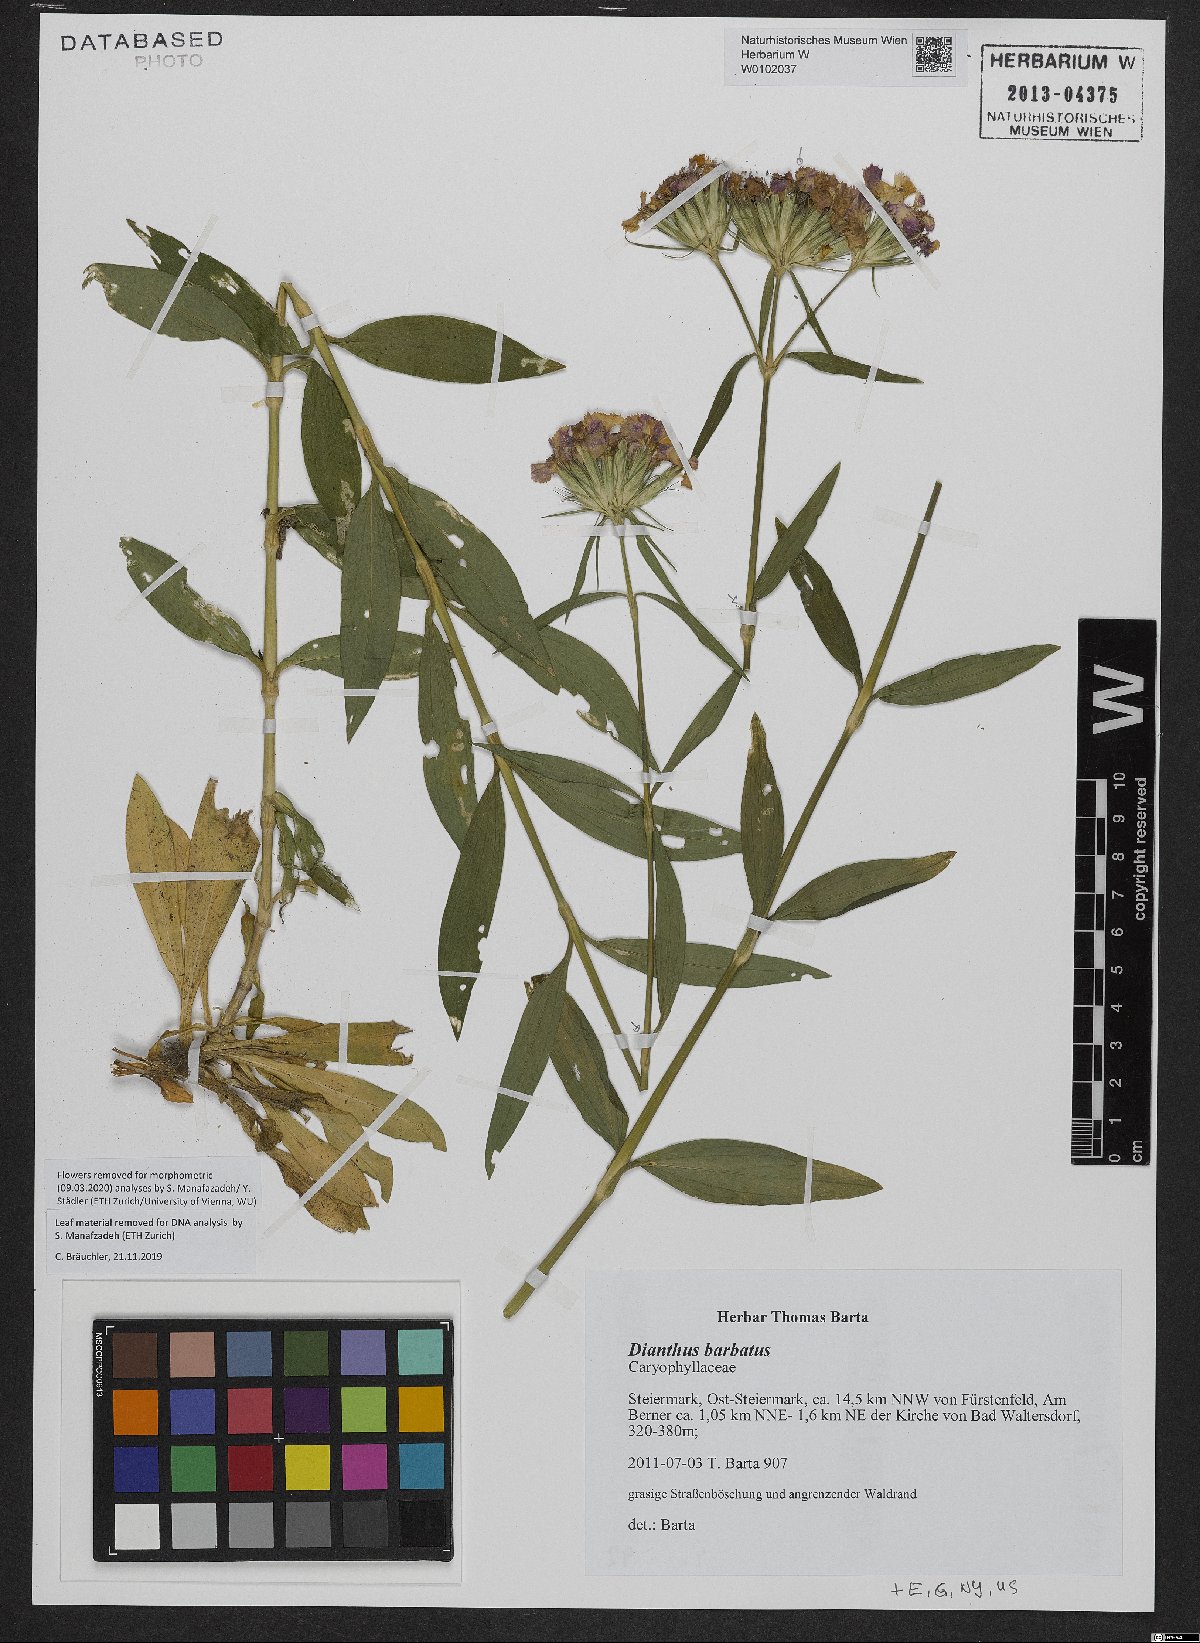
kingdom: Plantae
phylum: Tracheophyta
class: Magnoliopsida
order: Caryophyllales
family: Caryophyllaceae
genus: Dianthus
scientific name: Dianthus barbatus
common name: Sweet-william
